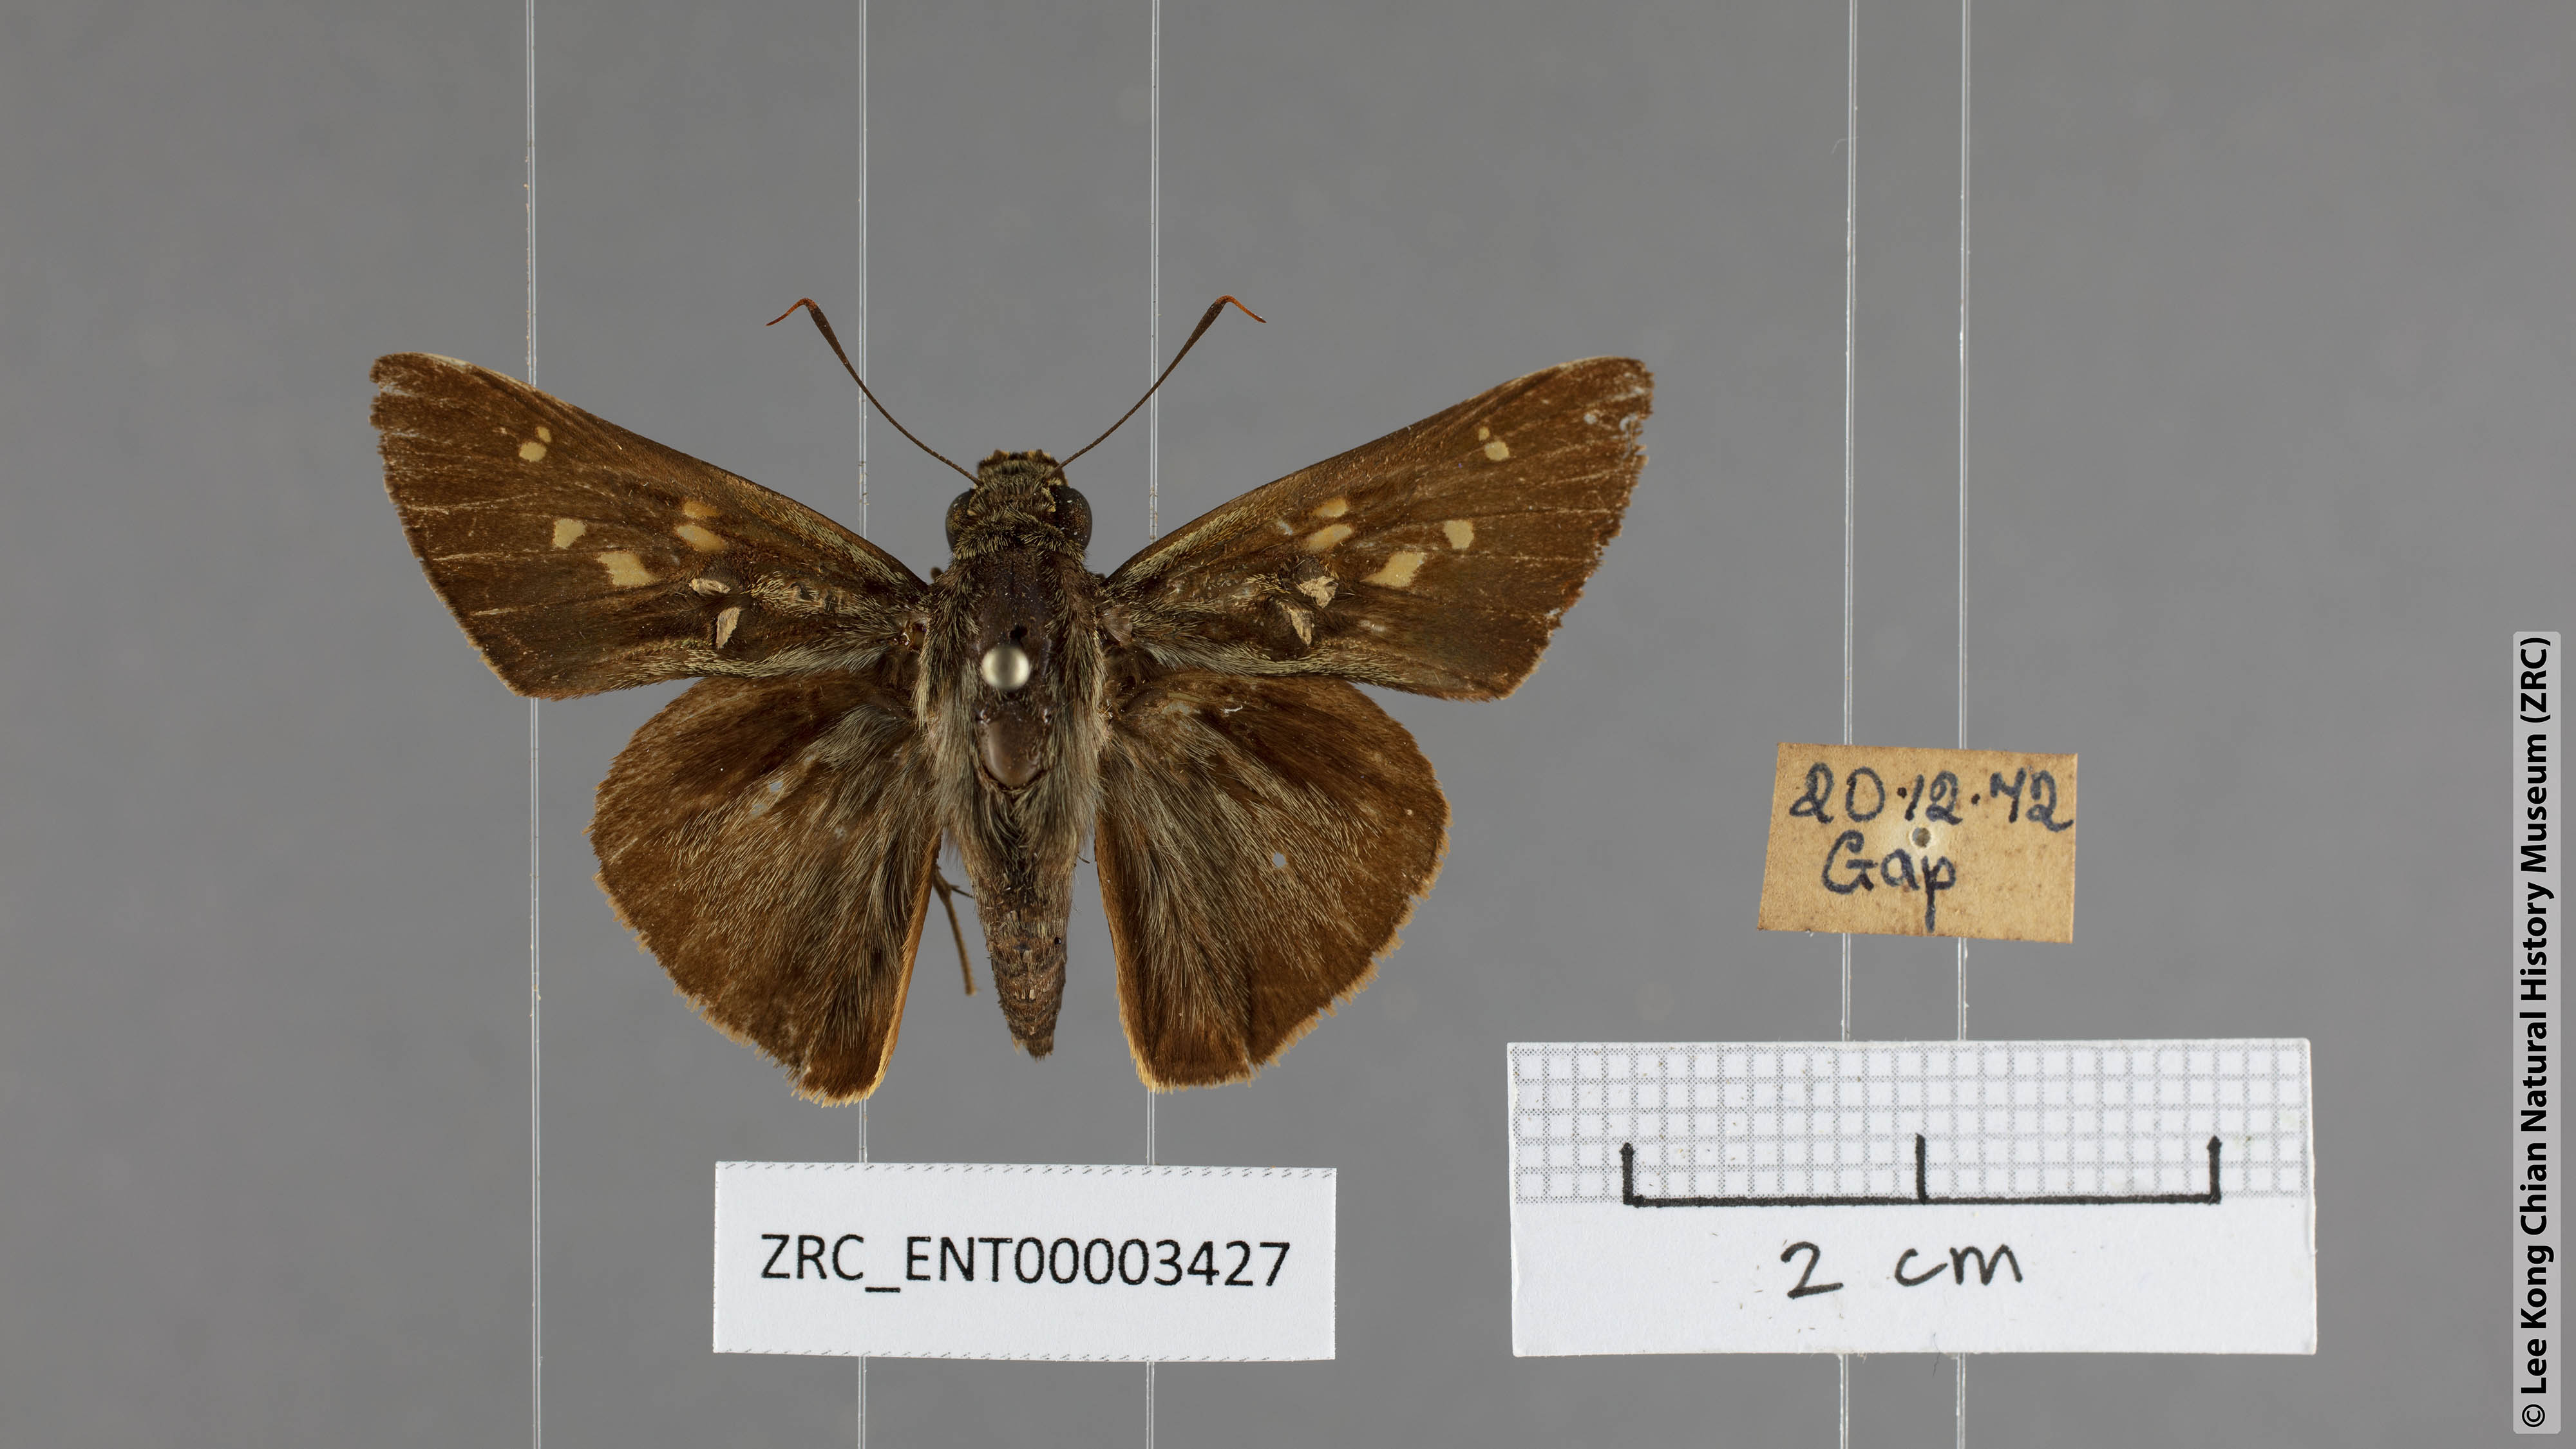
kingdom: Animalia
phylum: Arthropoda
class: Insecta
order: Lepidoptera
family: Hesperiidae
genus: Pithauria
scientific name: Pithauria marsena
